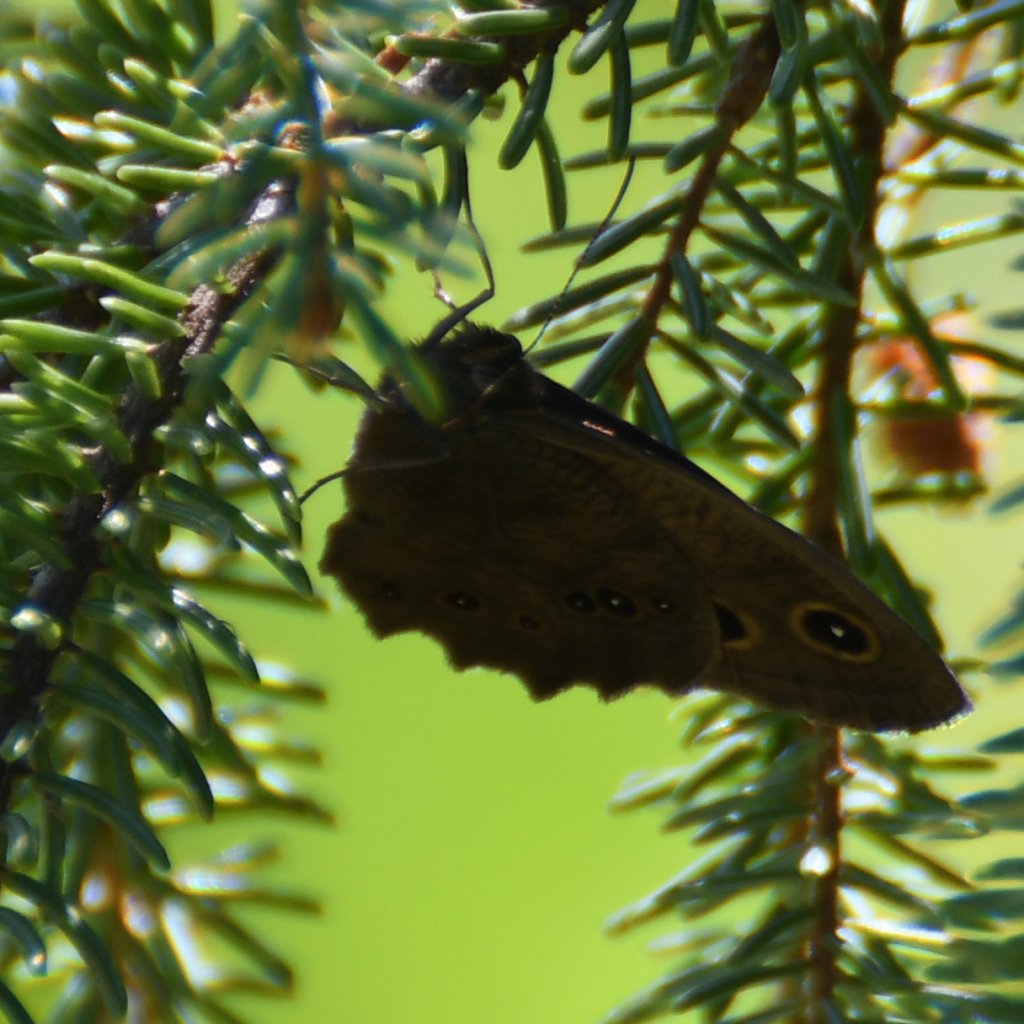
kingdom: Animalia
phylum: Arthropoda
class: Insecta
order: Lepidoptera
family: Nymphalidae
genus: Cercyonis
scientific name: Cercyonis pegala
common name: Common Wood-Nymph
